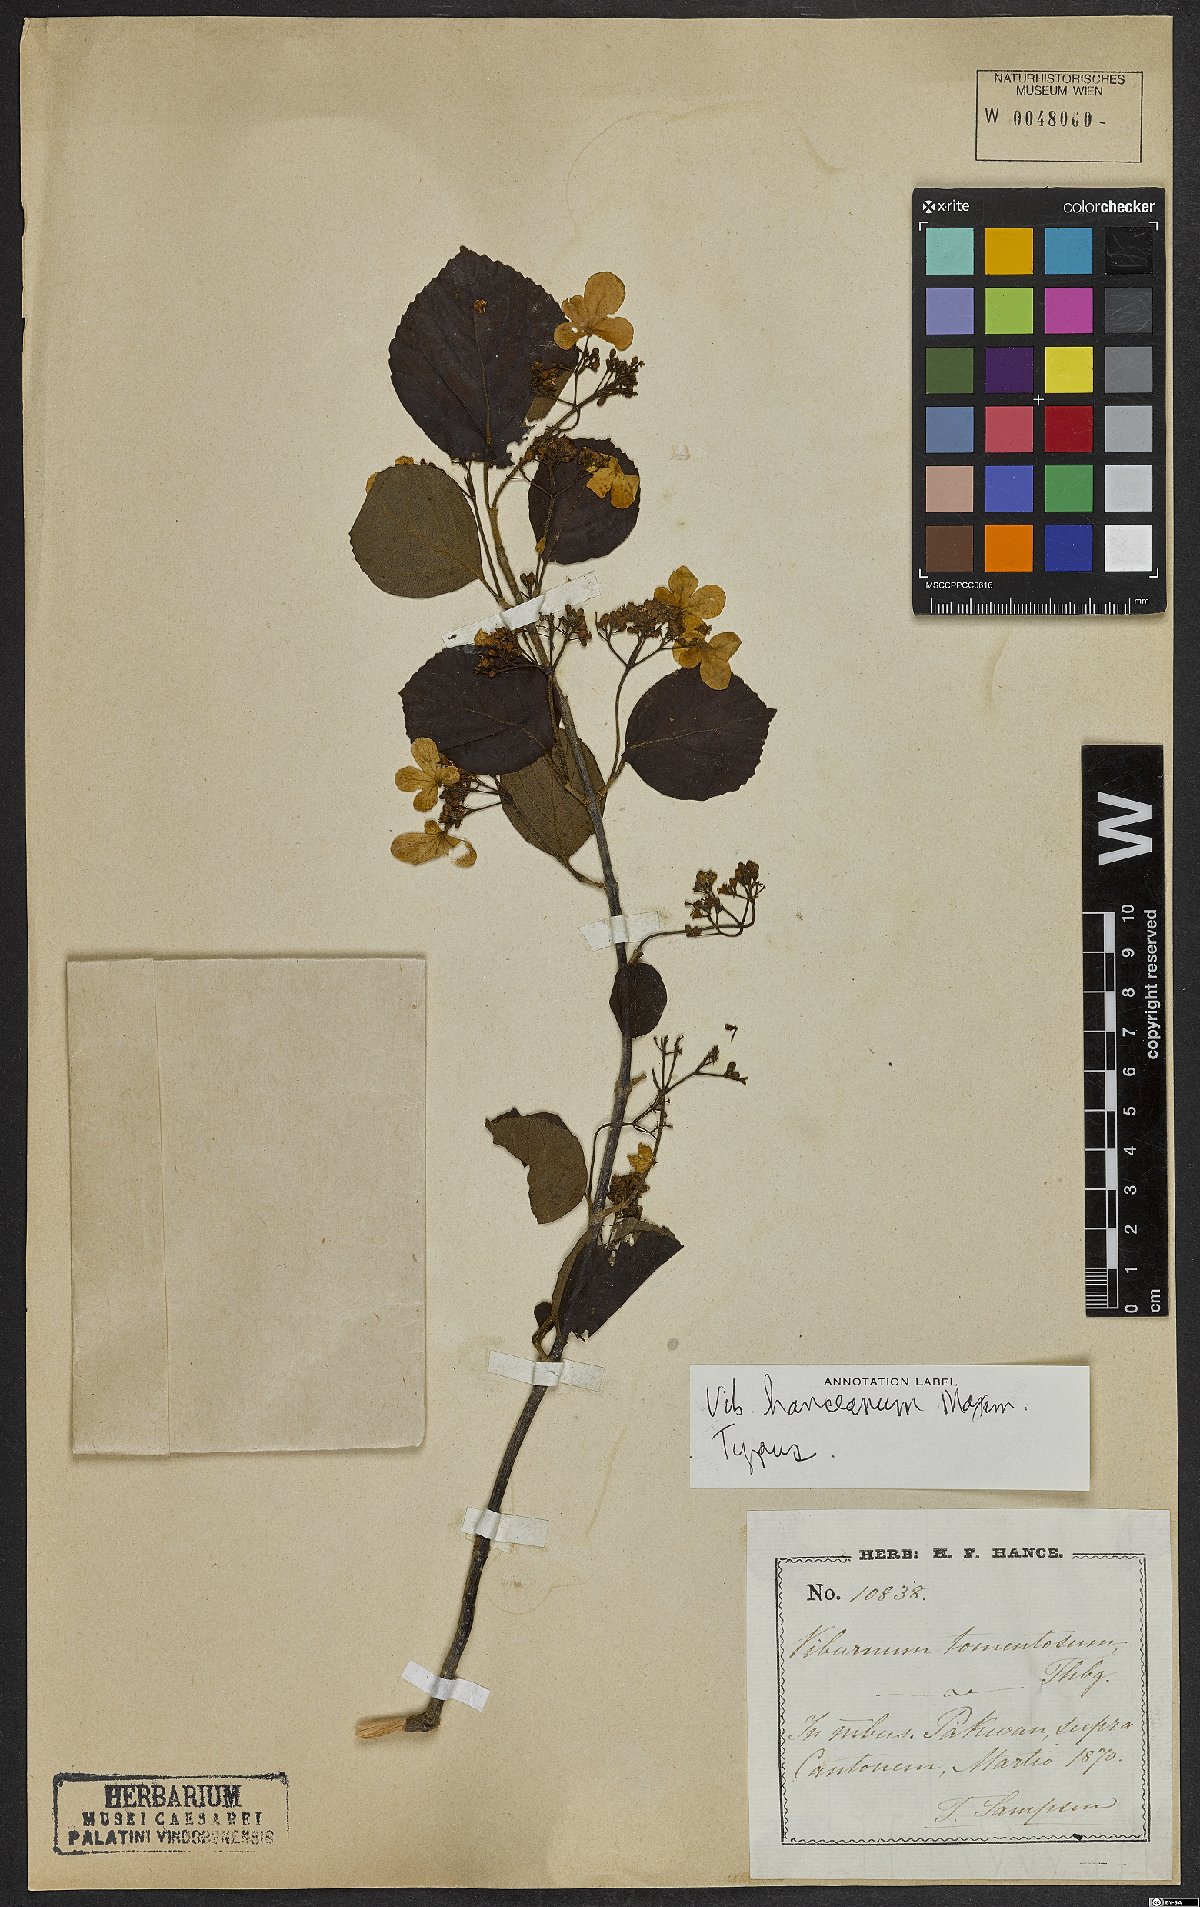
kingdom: Plantae
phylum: Tracheophyta
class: Magnoliopsida
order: Dipsacales
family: Viburnaceae
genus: Viburnum
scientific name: Viburnum hanceanum
